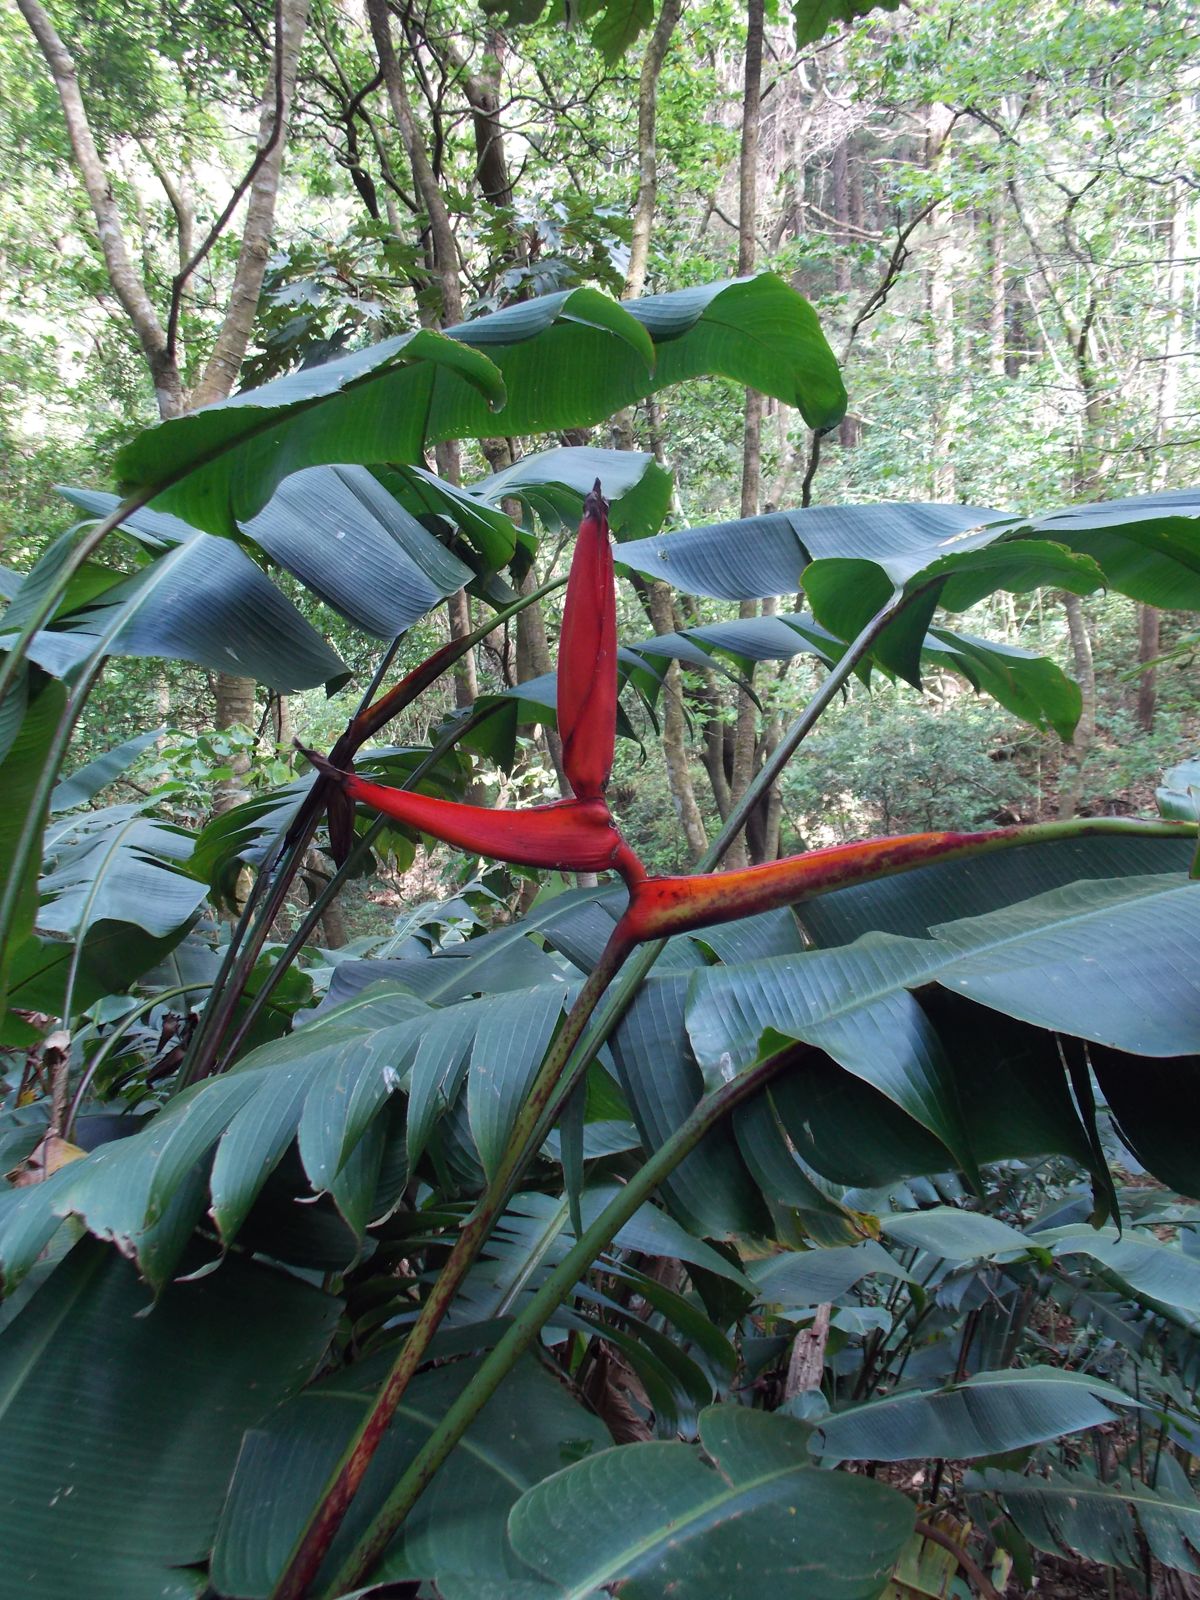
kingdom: Plantae
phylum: Tracheophyta
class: Liliopsida
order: Zingiberales
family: Heliconiaceae
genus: Heliconia
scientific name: Heliconia latispatha
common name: Expanded lobsterclaw
